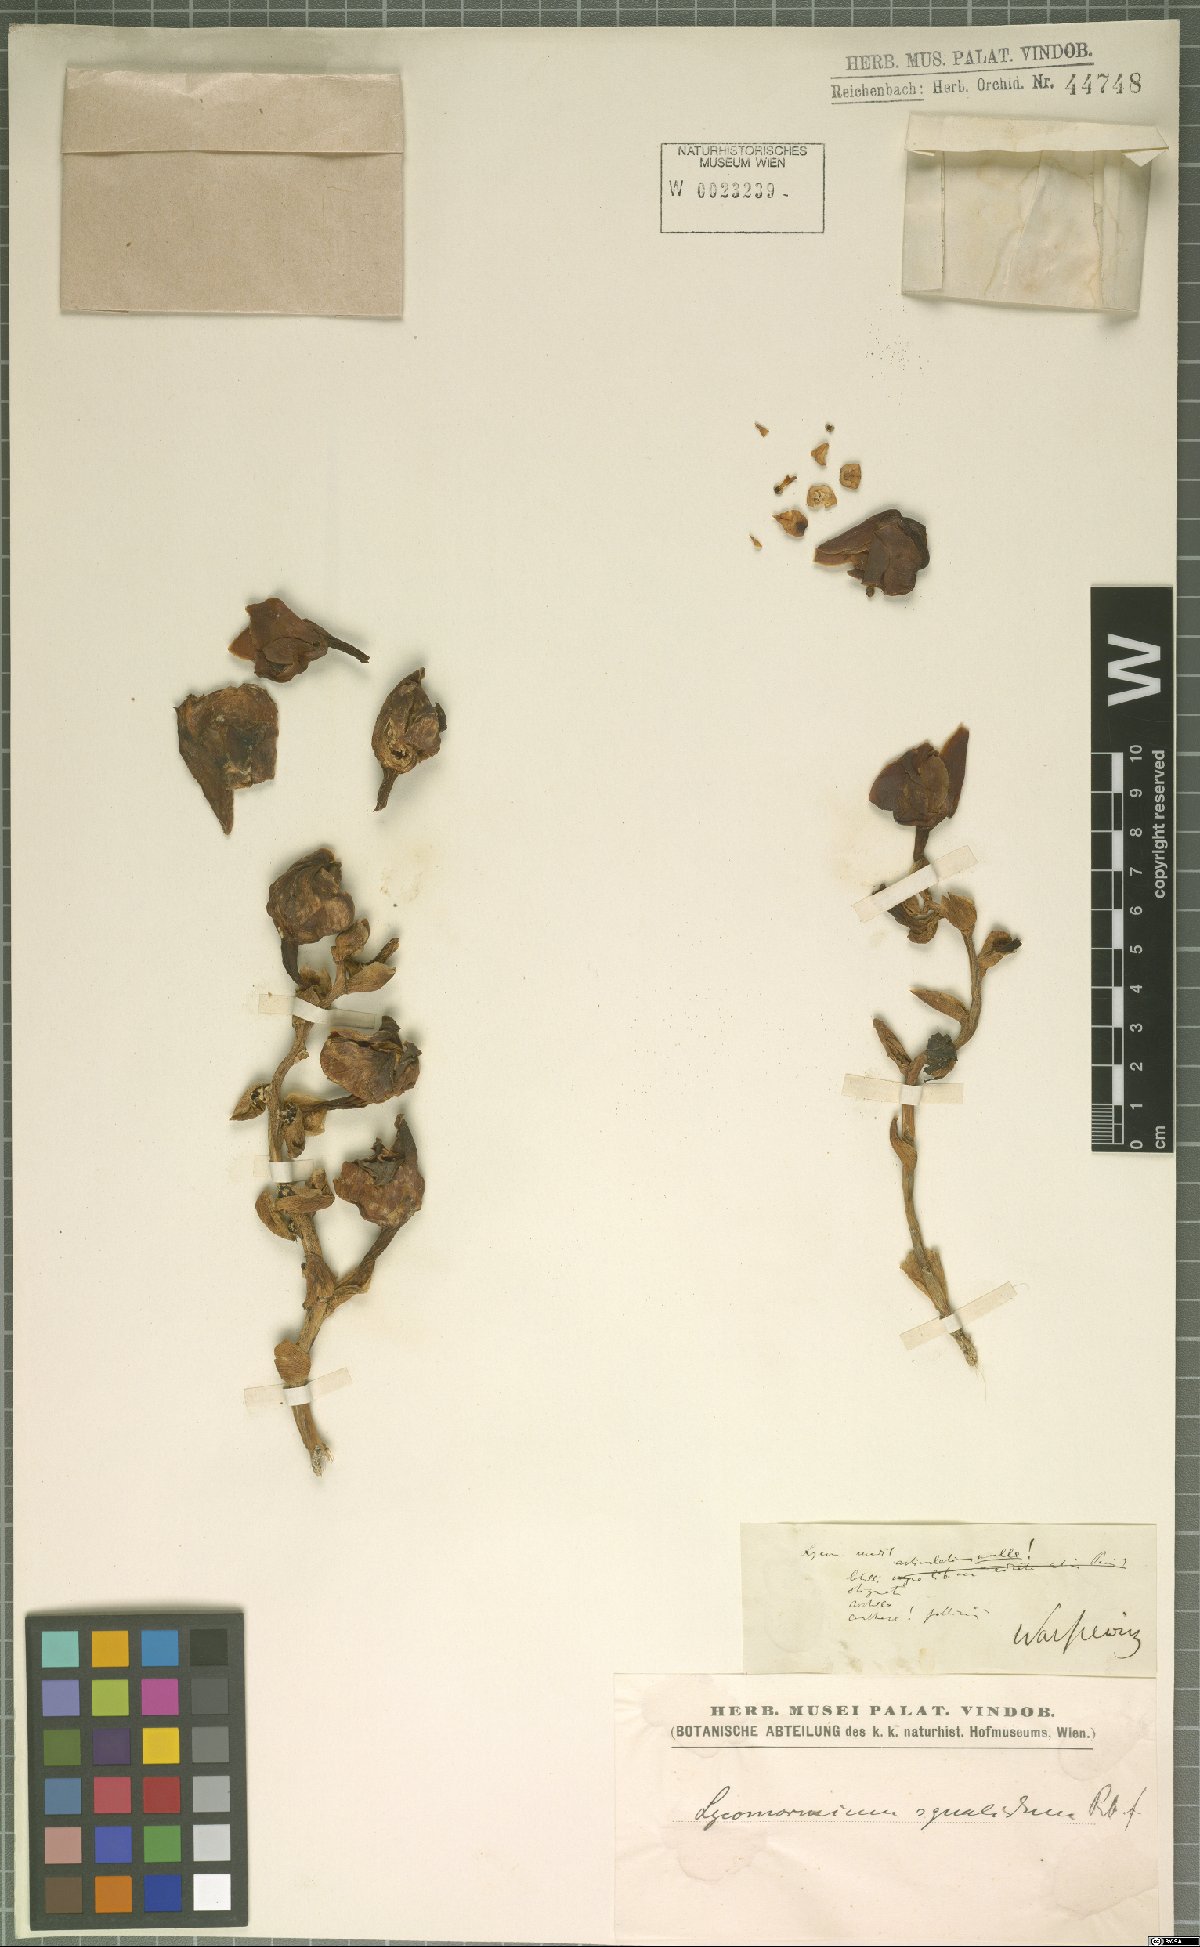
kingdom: Plantae
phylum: Tracheophyta
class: Liliopsida
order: Asparagales
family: Orchidaceae
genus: Lycomormium
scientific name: Lycomormium squalidum
